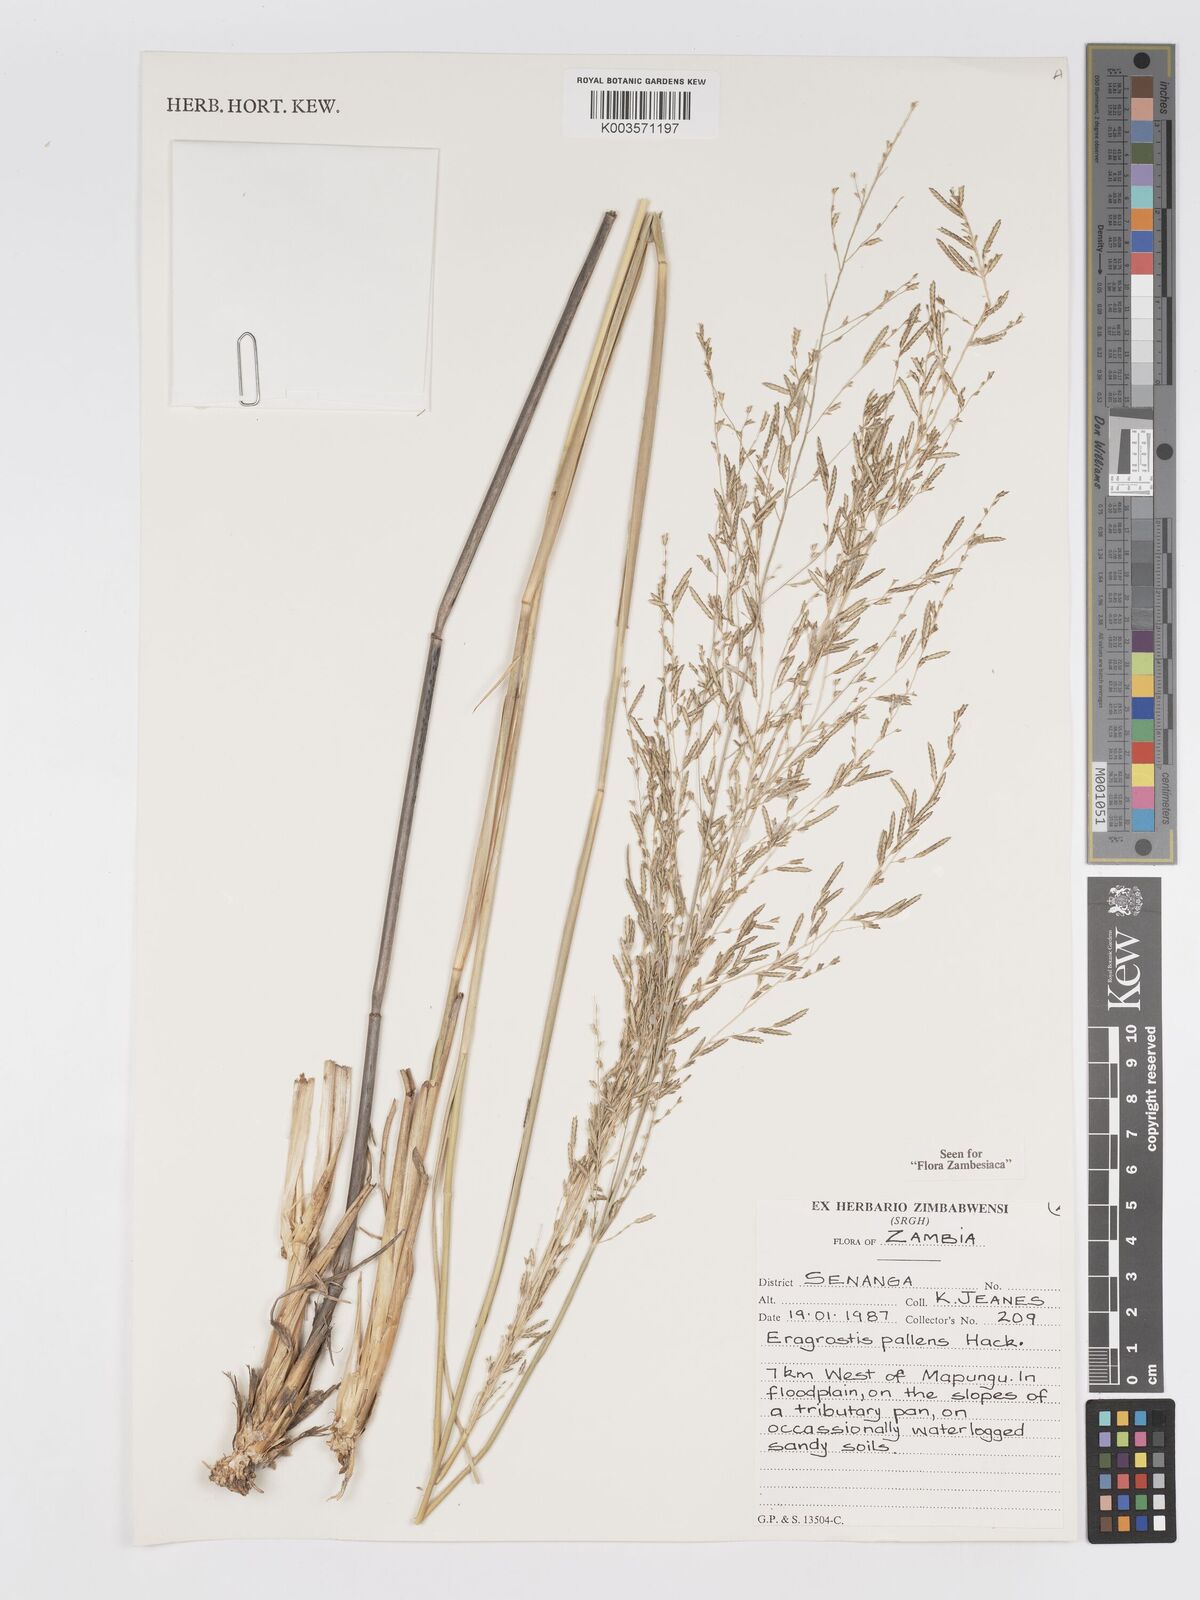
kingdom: Plantae
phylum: Tracheophyta
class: Liliopsida
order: Poales
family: Poaceae
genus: Eragrostis
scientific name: Eragrostis pallens
